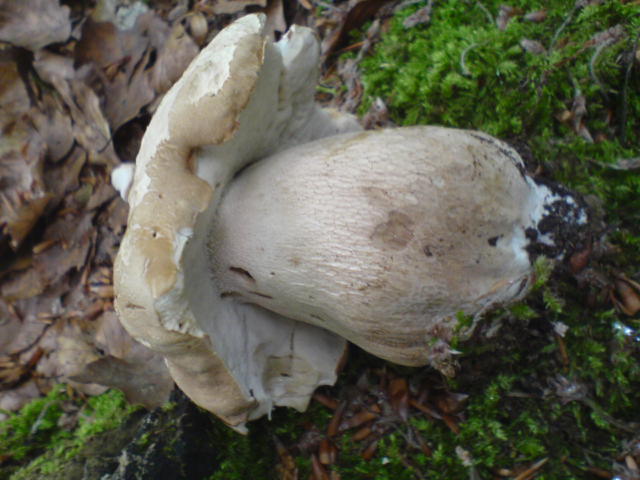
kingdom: Fungi
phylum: Basidiomycota
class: Agaricomycetes
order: Boletales
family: Boletaceae
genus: Boletus
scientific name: Boletus reticulatus
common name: sommer-rørhat
